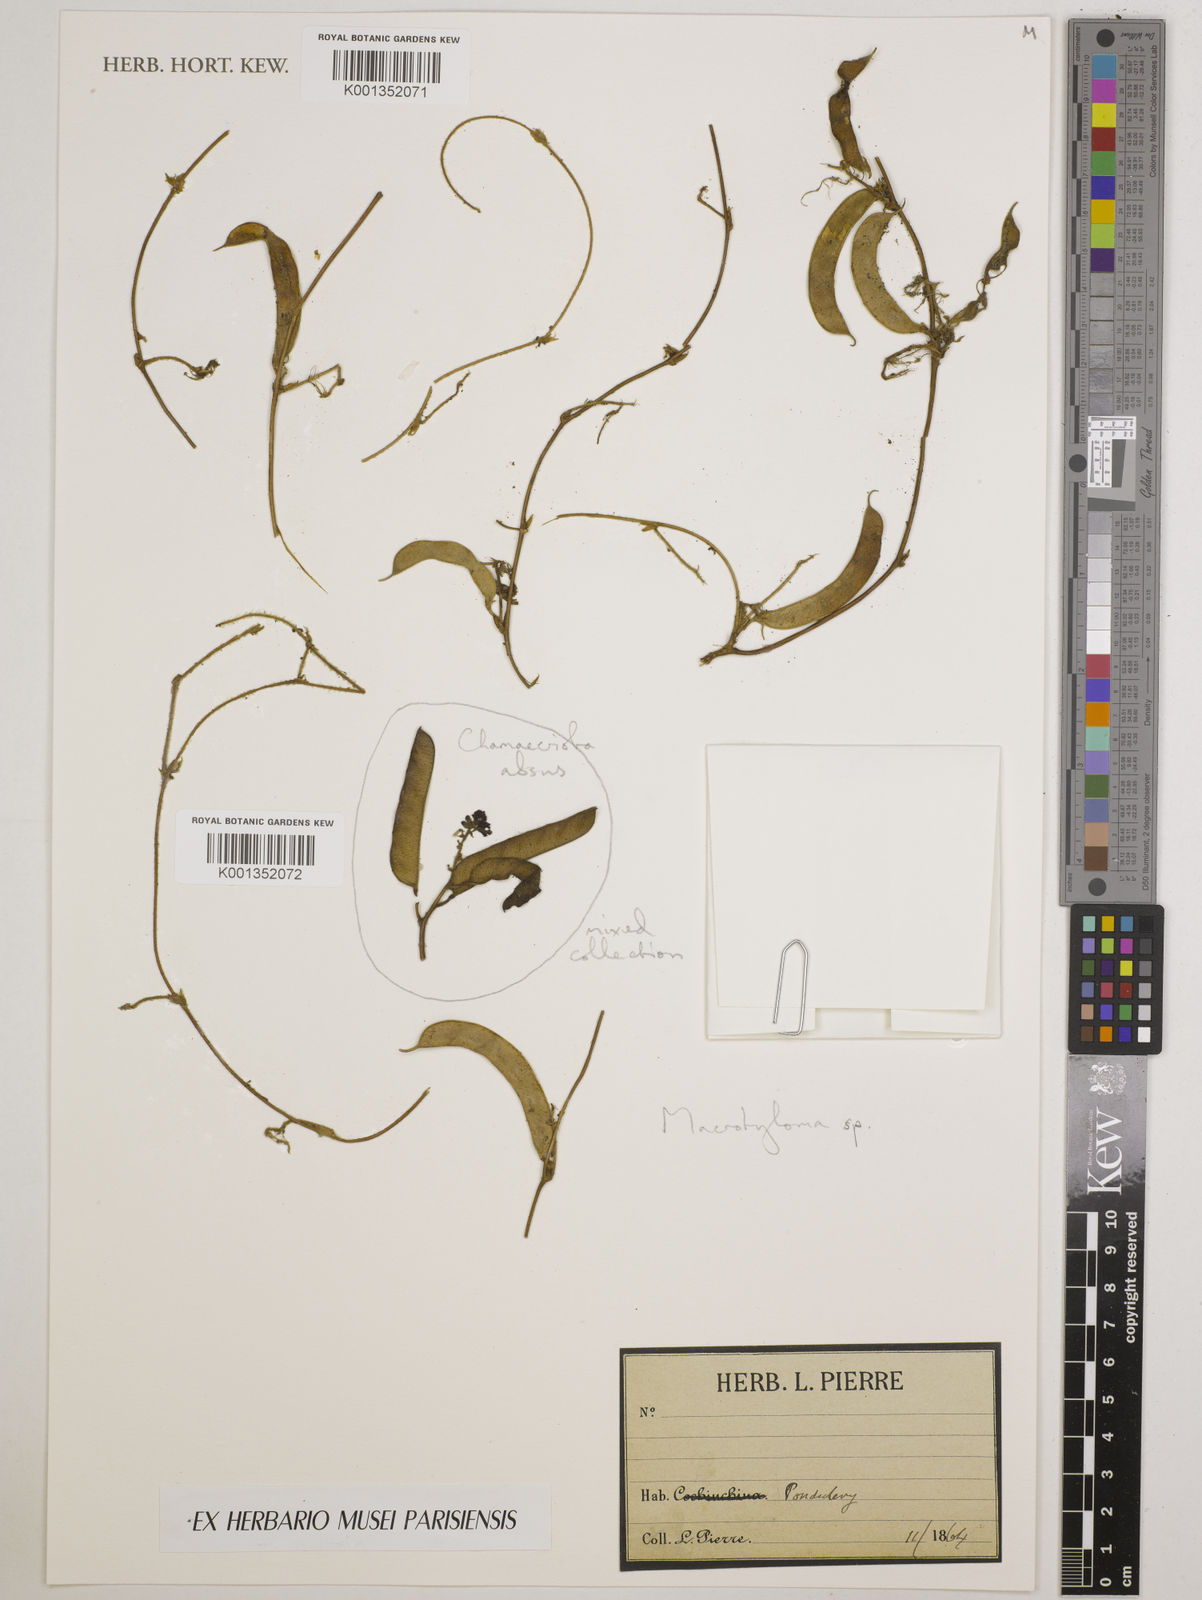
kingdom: Plantae
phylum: Tracheophyta
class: Magnoliopsida
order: Fabales
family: Fabaceae
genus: Macrotyloma
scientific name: Macrotyloma
